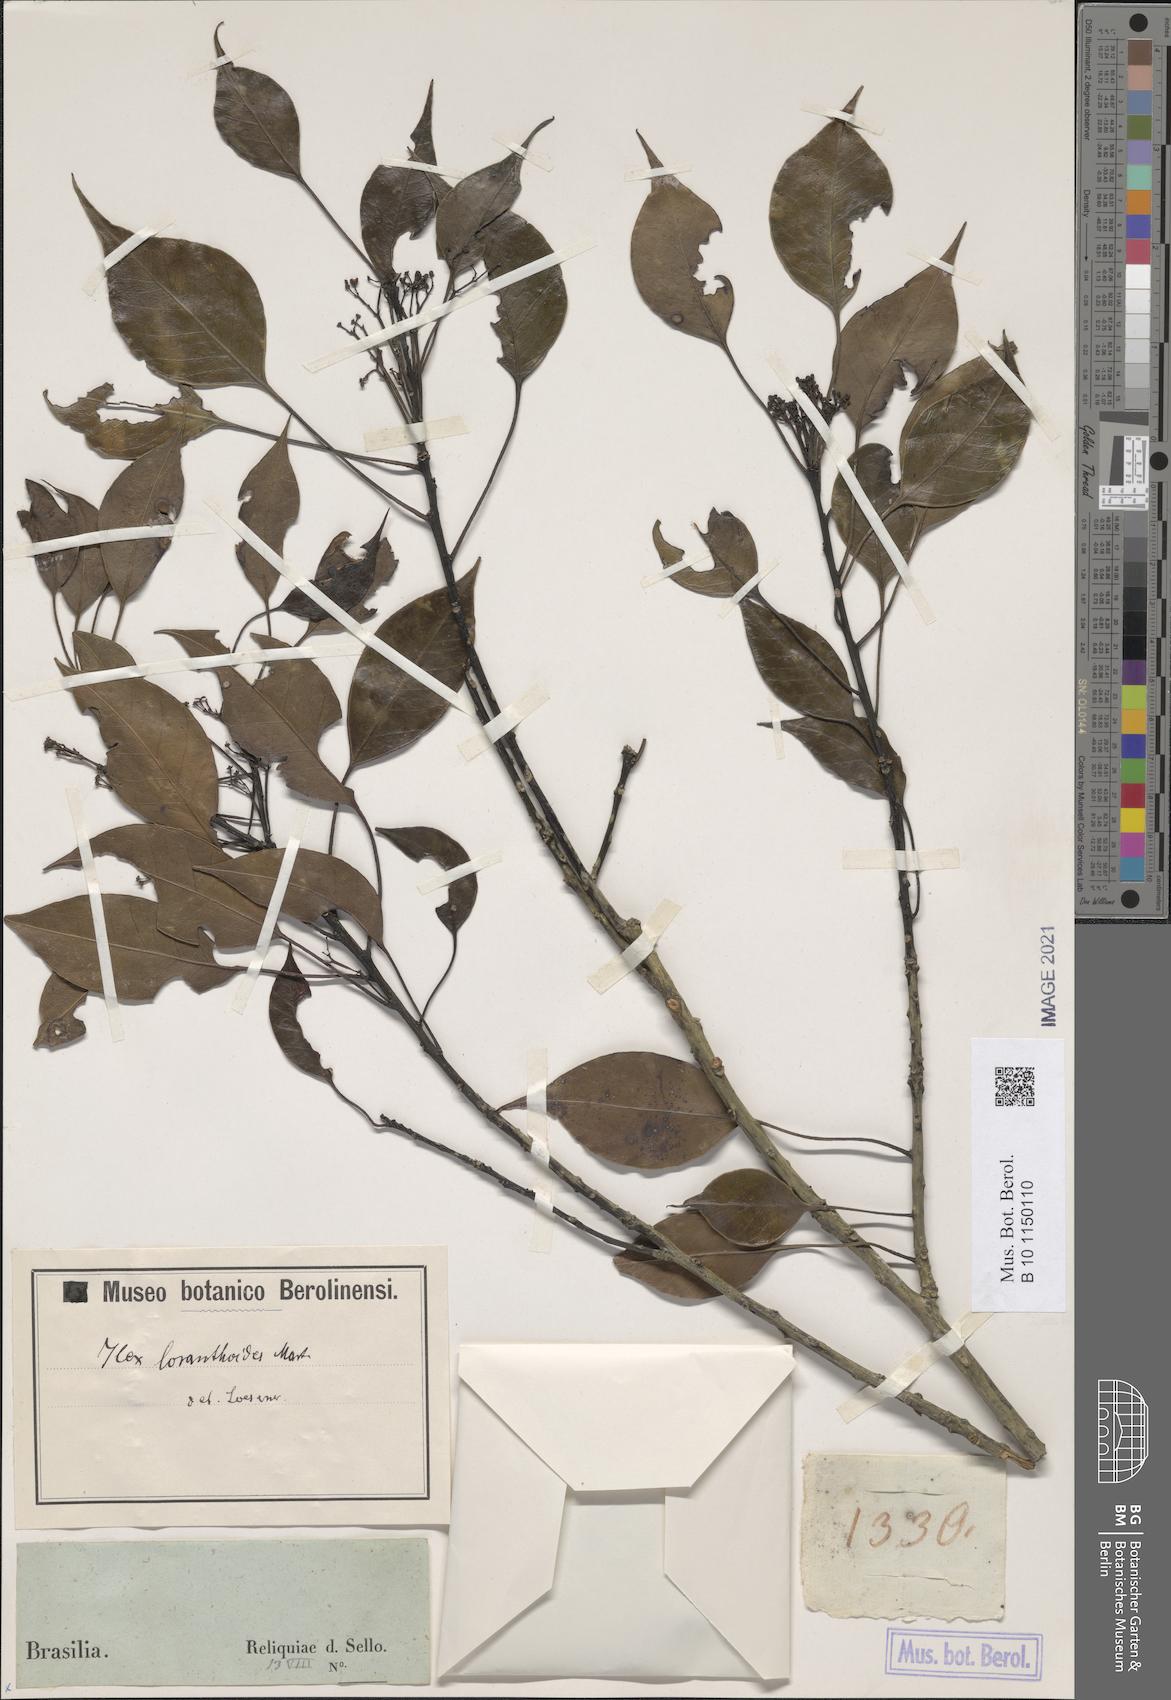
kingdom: Plantae
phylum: Tracheophyta
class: Magnoliopsida
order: Aquifoliales
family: Aquifoliaceae
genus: Ilex
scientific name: Ilex loranthoides
